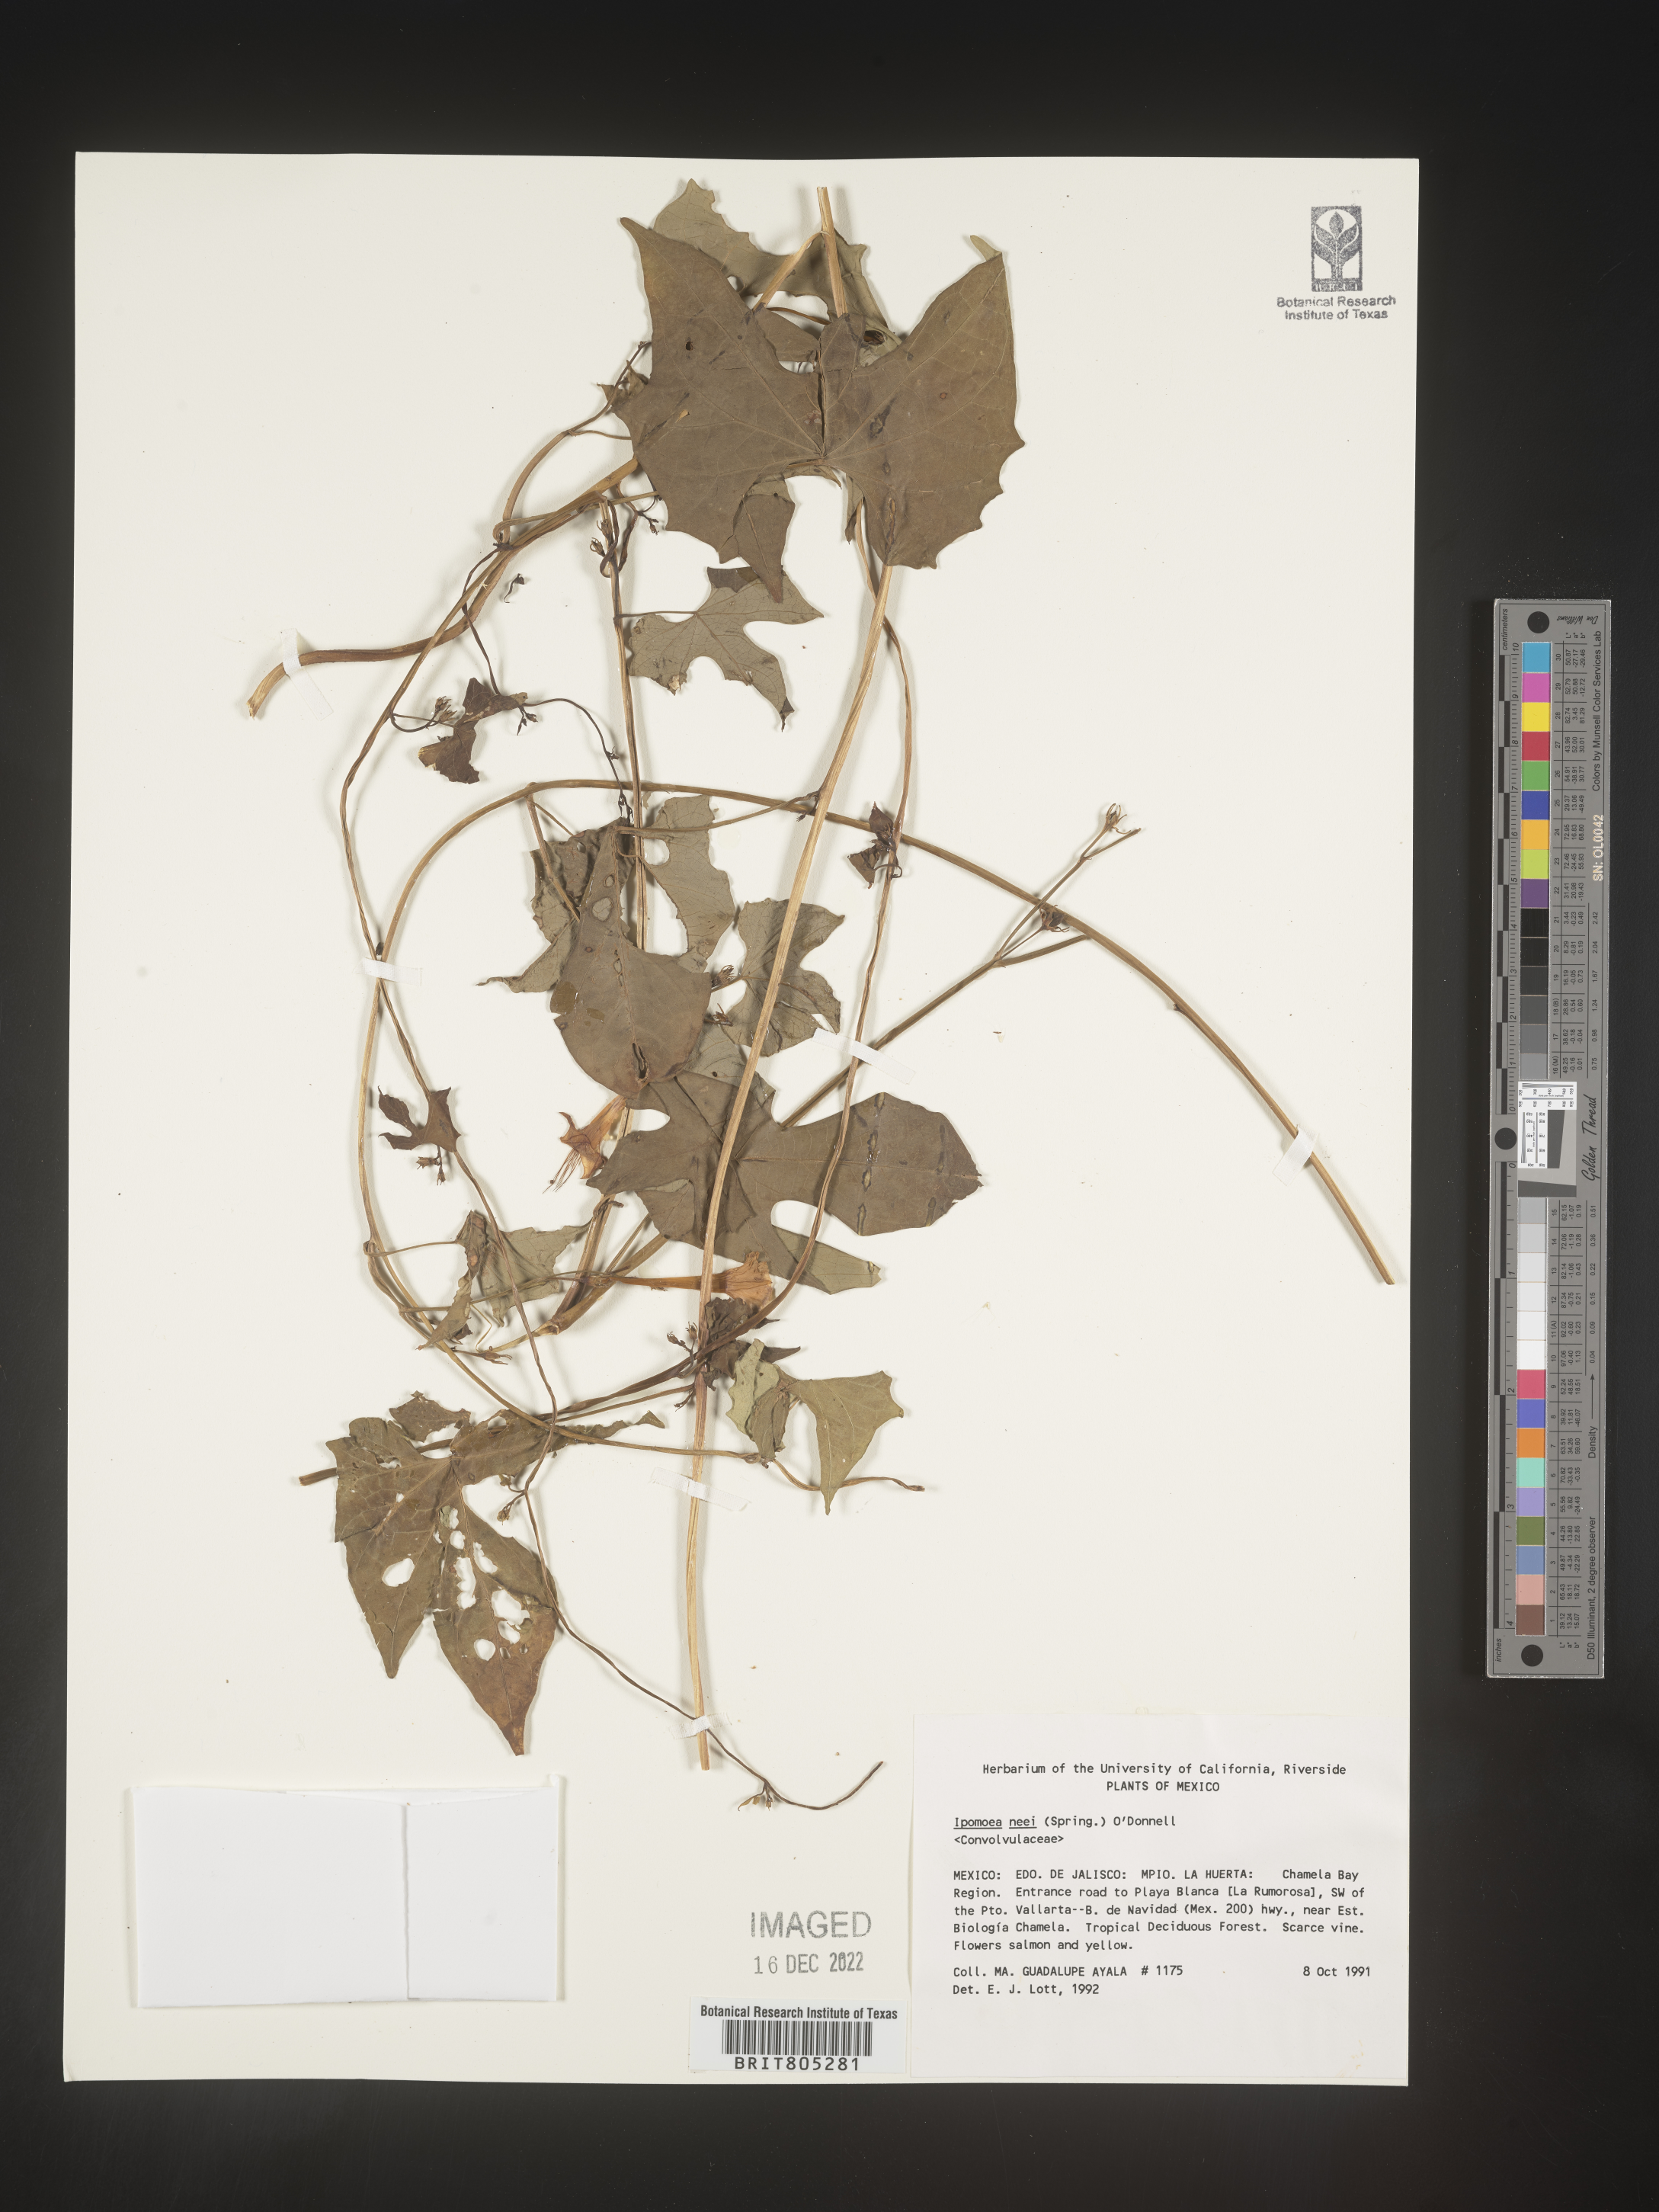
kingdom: Plantae
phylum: Tracheophyta
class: Magnoliopsida
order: Solanales
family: Convolvulaceae
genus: Ipomoea
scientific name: Ipomoea
